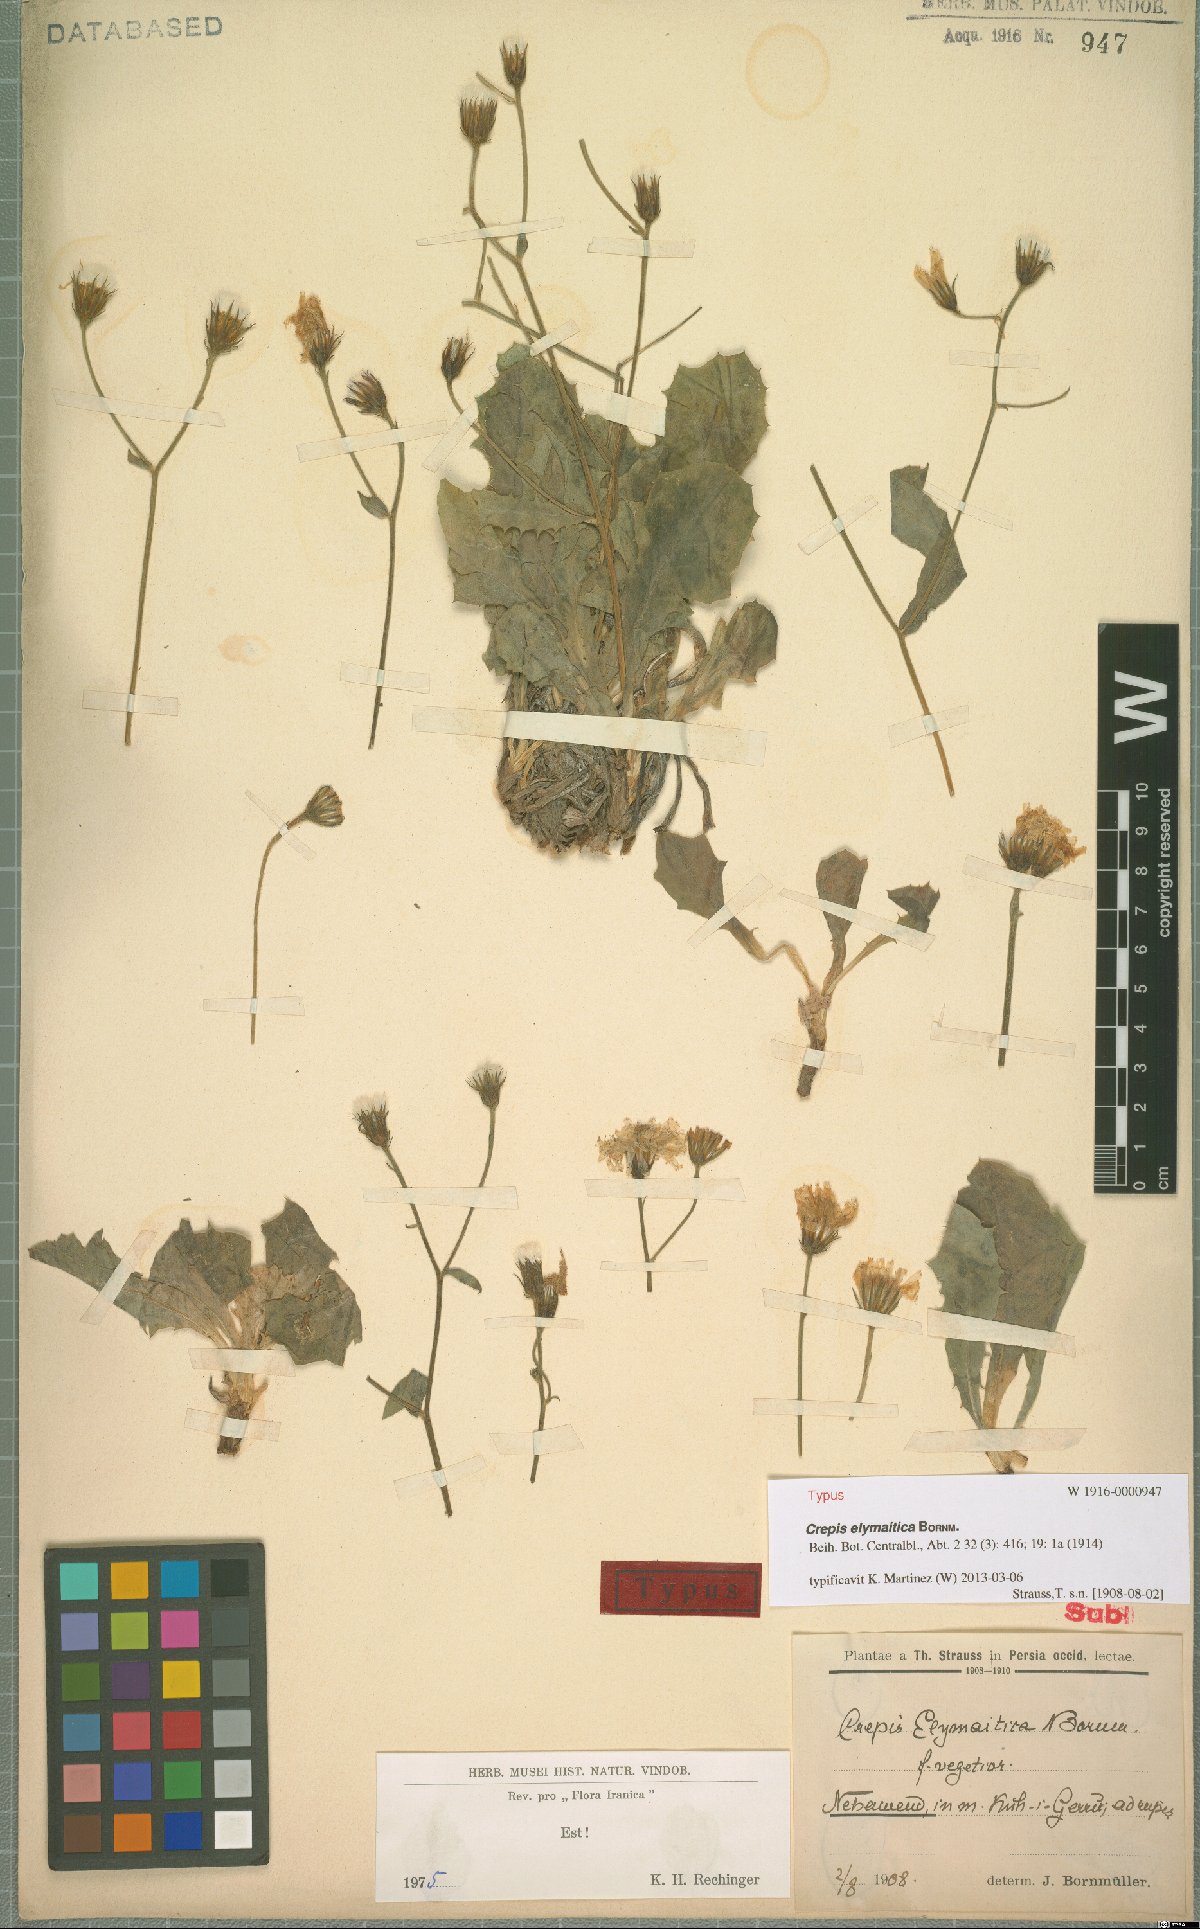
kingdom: Plantae
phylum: Tracheophyta
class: Magnoliopsida
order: Asterales
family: Asteraceae
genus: Crepis
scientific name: Crepis elymaitica
